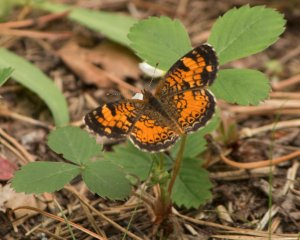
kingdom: Animalia
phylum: Arthropoda
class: Insecta
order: Lepidoptera
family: Nymphalidae
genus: Phyciodes
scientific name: Phyciodes tharos
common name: Northern Crescent
